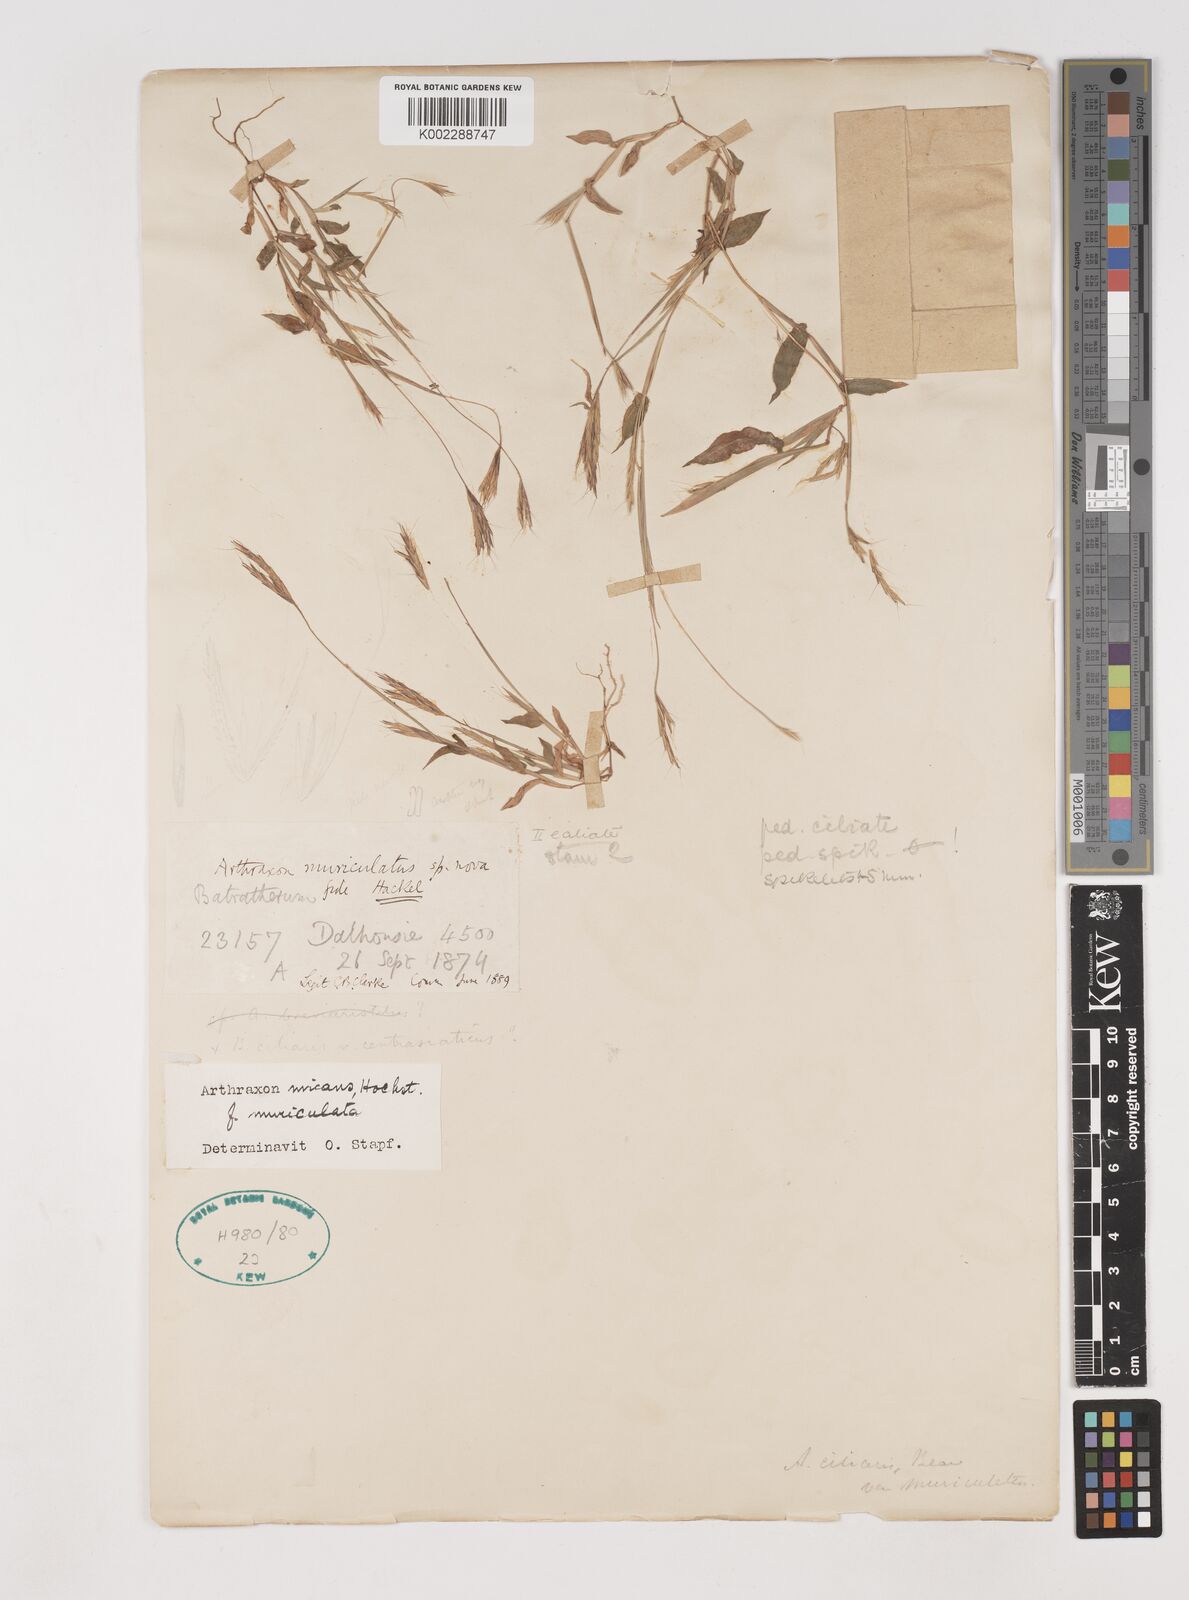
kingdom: Plantae
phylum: Tracheophyta
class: Liliopsida
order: Poales
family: Poaceae
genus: Arthraxon
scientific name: Arthraxon hispidus
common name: Small carpgrass
